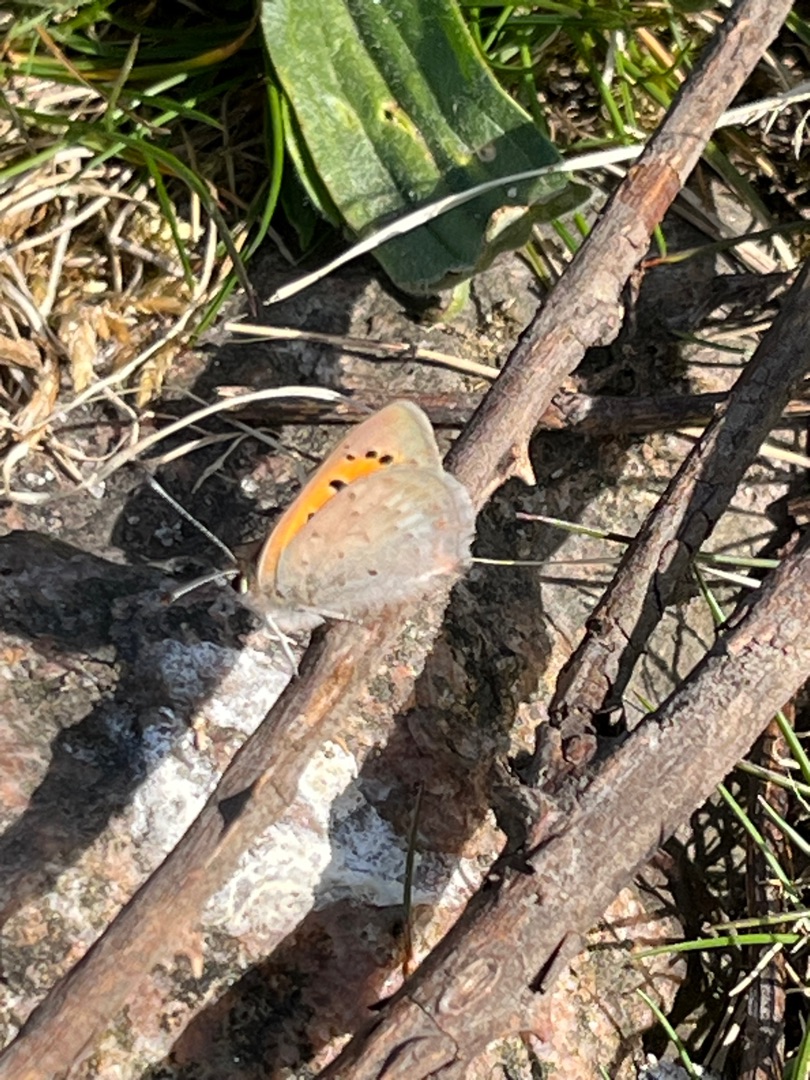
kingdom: Animalia
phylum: Arthropoda
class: Insecta
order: Lepidoptera
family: Lycaenidae
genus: Lycaena
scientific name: Lycaena phlaeas
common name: Lille ildfugl
